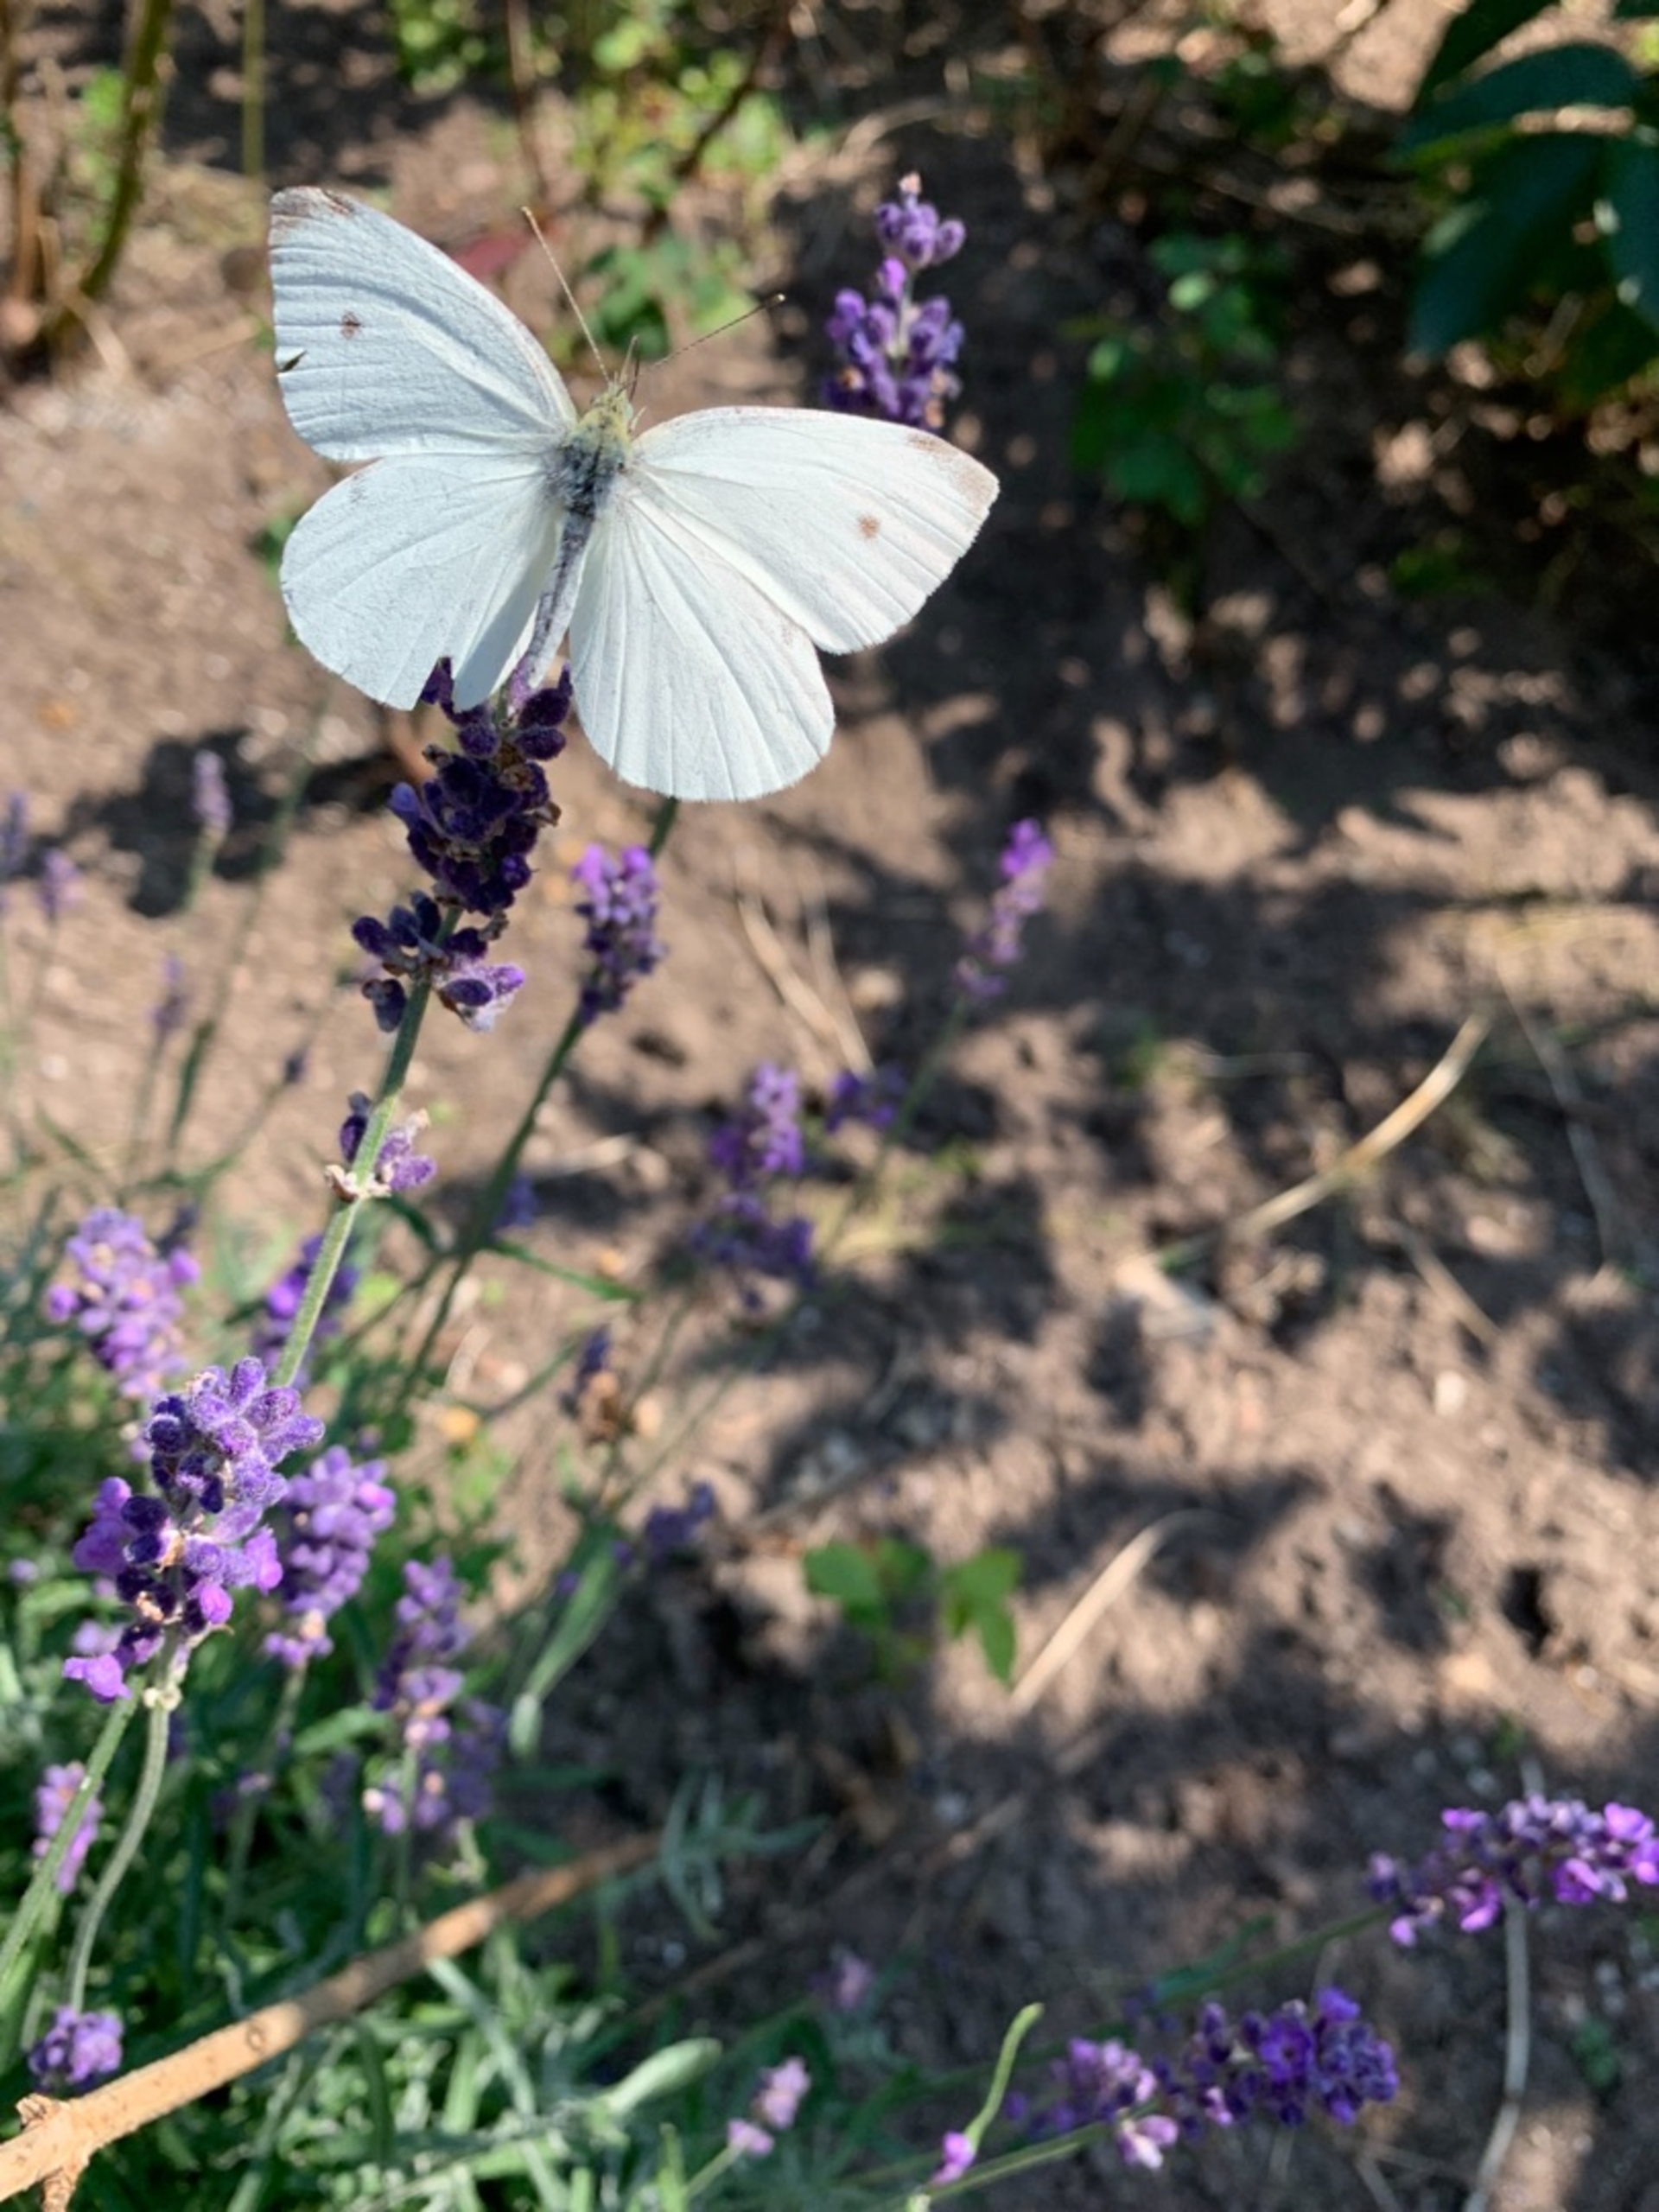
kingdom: Animalia
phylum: Arthropoda
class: Insecta
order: Lepidoptera
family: Pieridae
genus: Pieris
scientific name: Pieris rapae
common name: Lille kålsommerfugl
